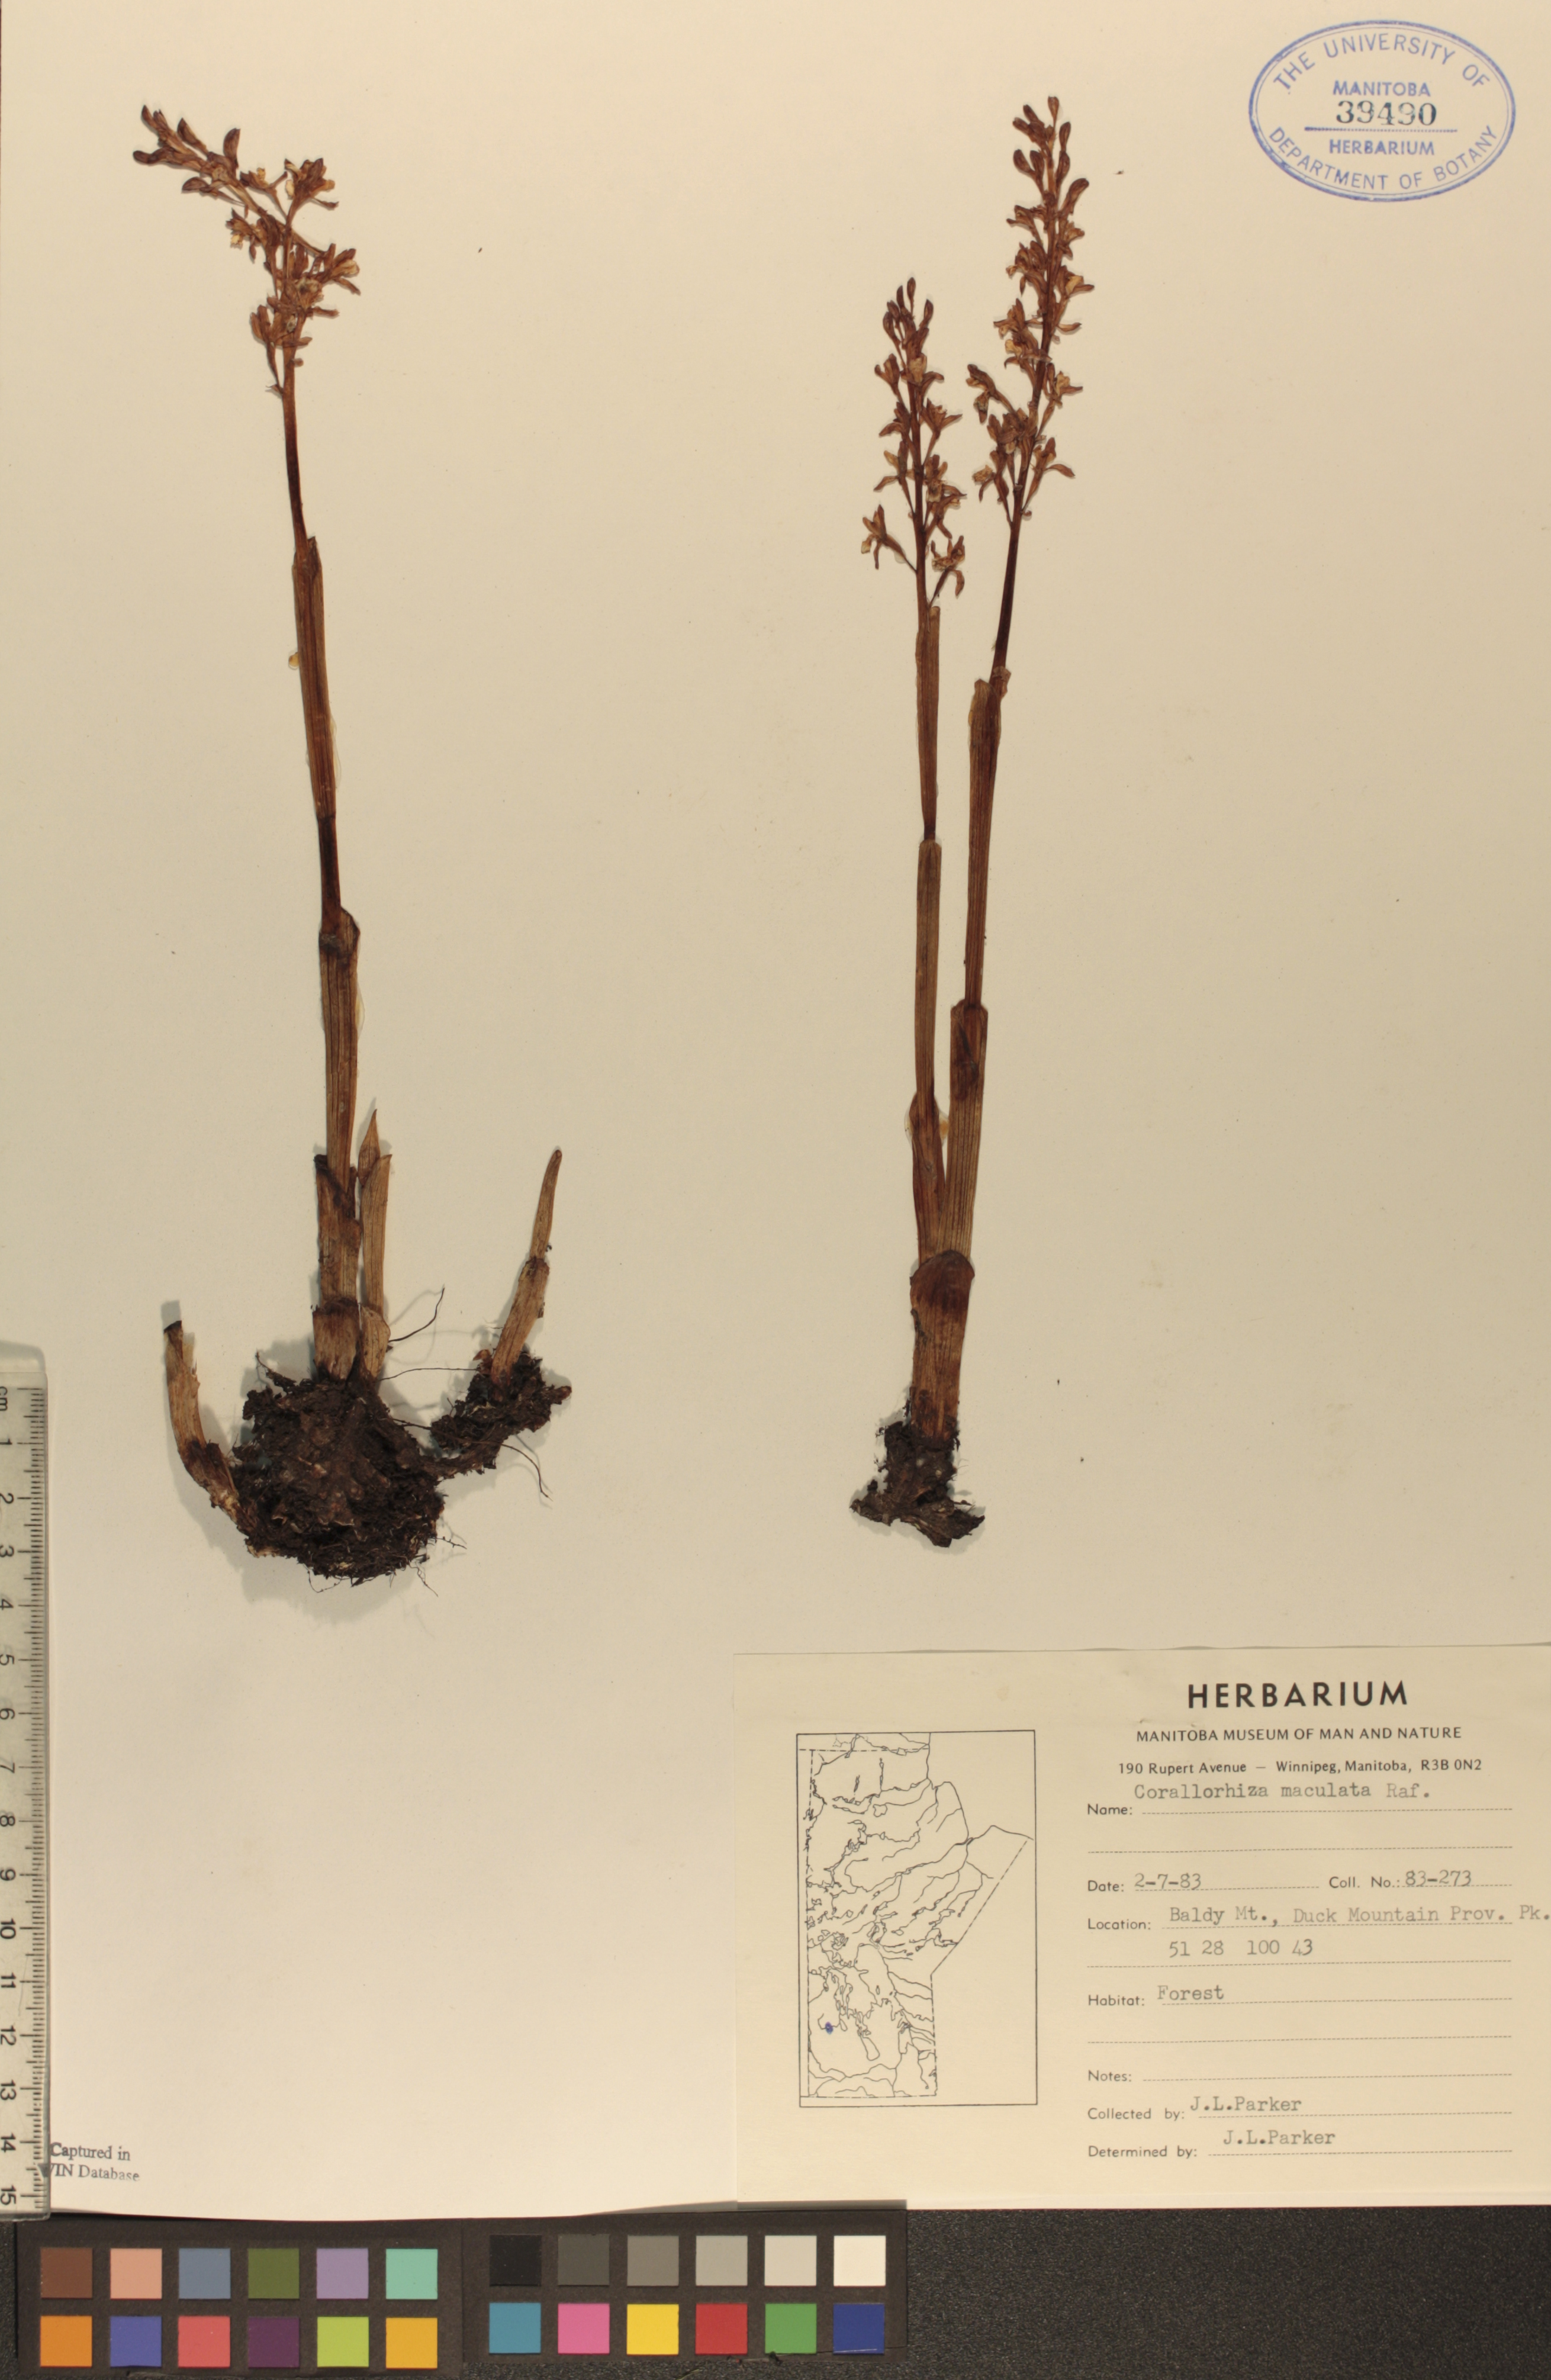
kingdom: Plantae
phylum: Tracheophyta
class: Liliopsida
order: Asparagales
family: Orchidaceae
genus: Corallorhiza
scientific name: Corallorhiza maculata
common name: Spotted coralroot
